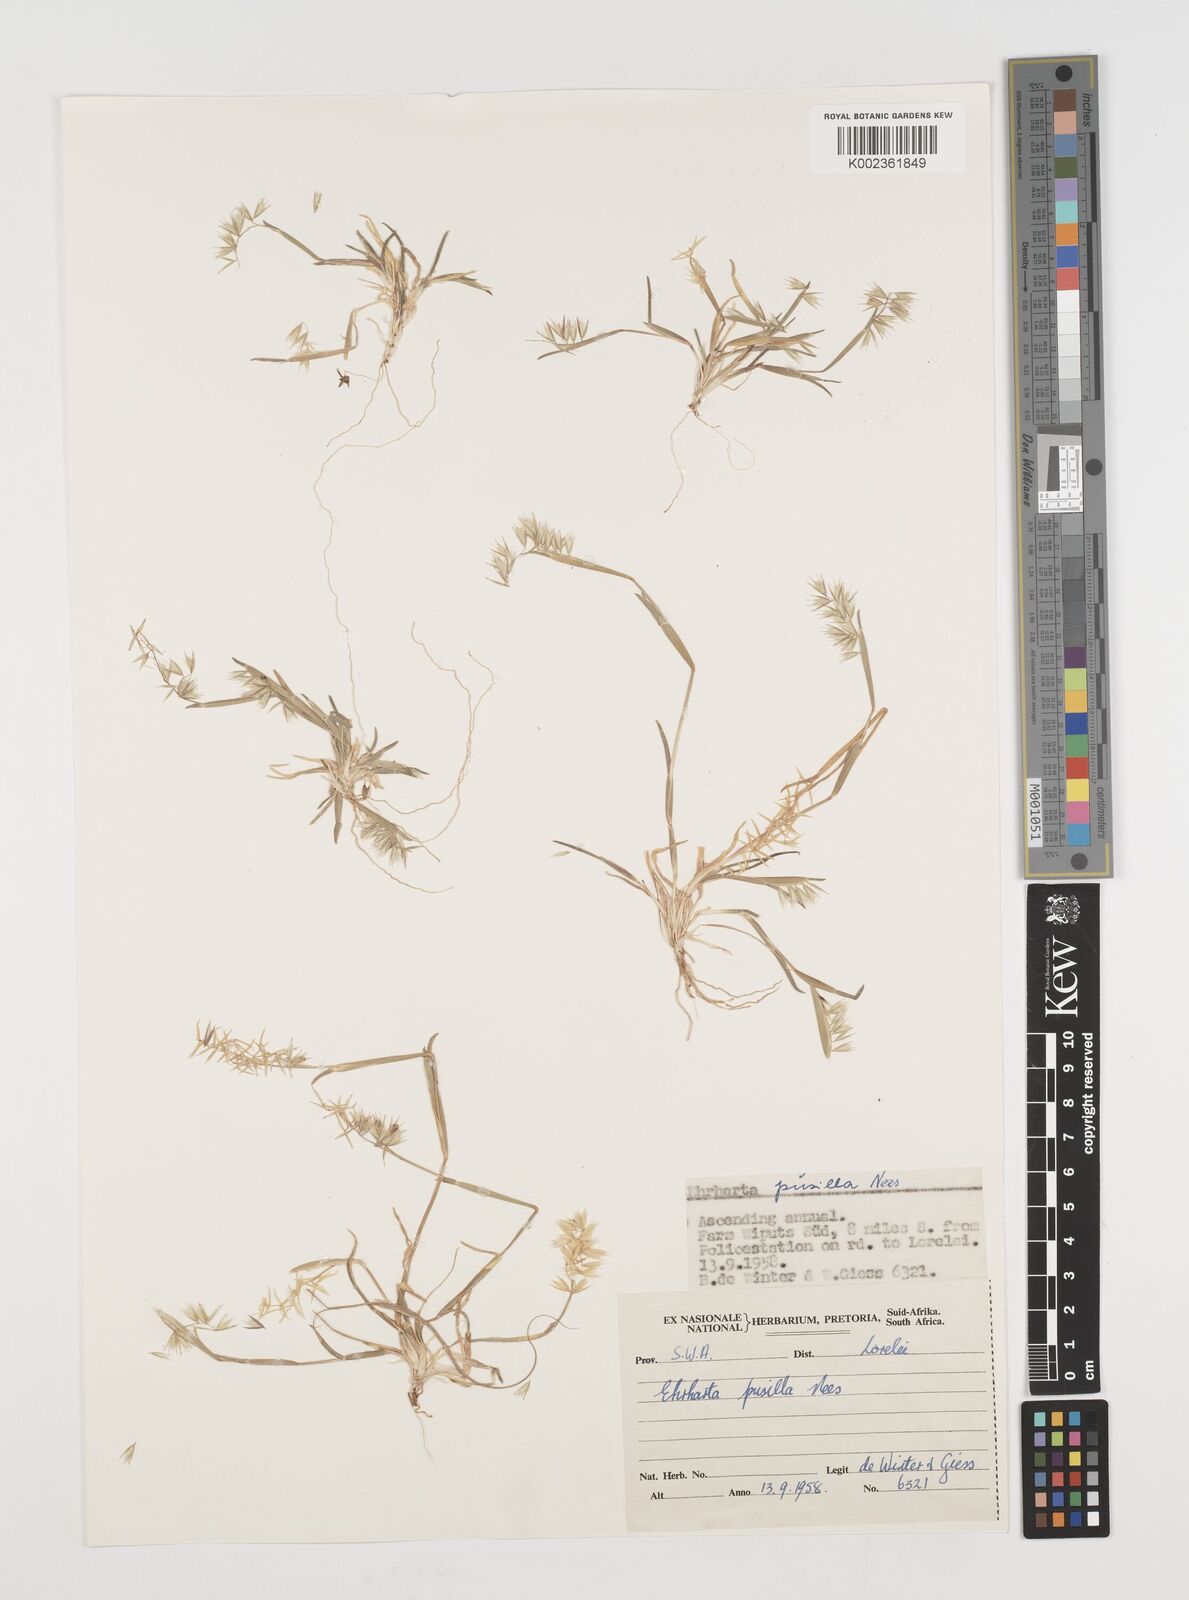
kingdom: Plantae
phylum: Tracheophyta
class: Liliopsida
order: Poales
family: Poaceae
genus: Ehrharta
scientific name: Ehrharta pusilla
